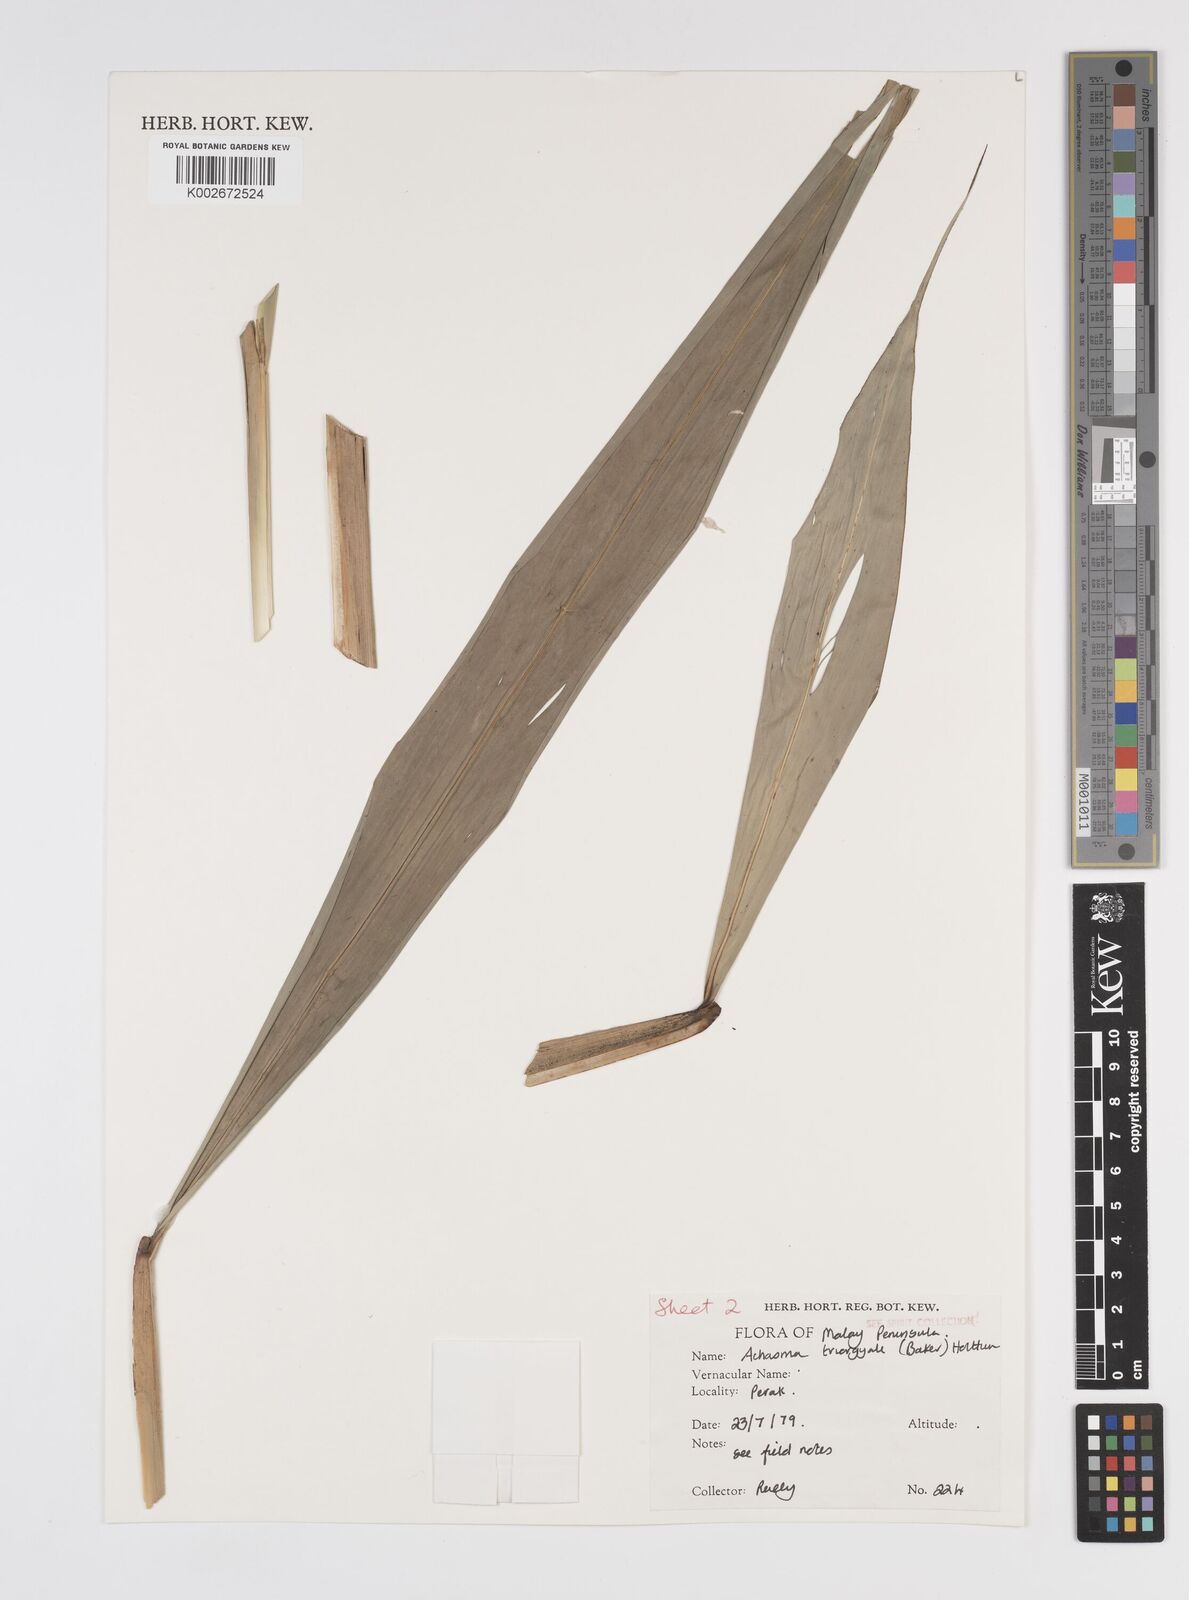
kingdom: Plantae
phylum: Tracheophyta
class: Liliopsida
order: Zingiberales
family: Zingiberaceae
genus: Etlingera
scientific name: Etlingera triorgyalis
